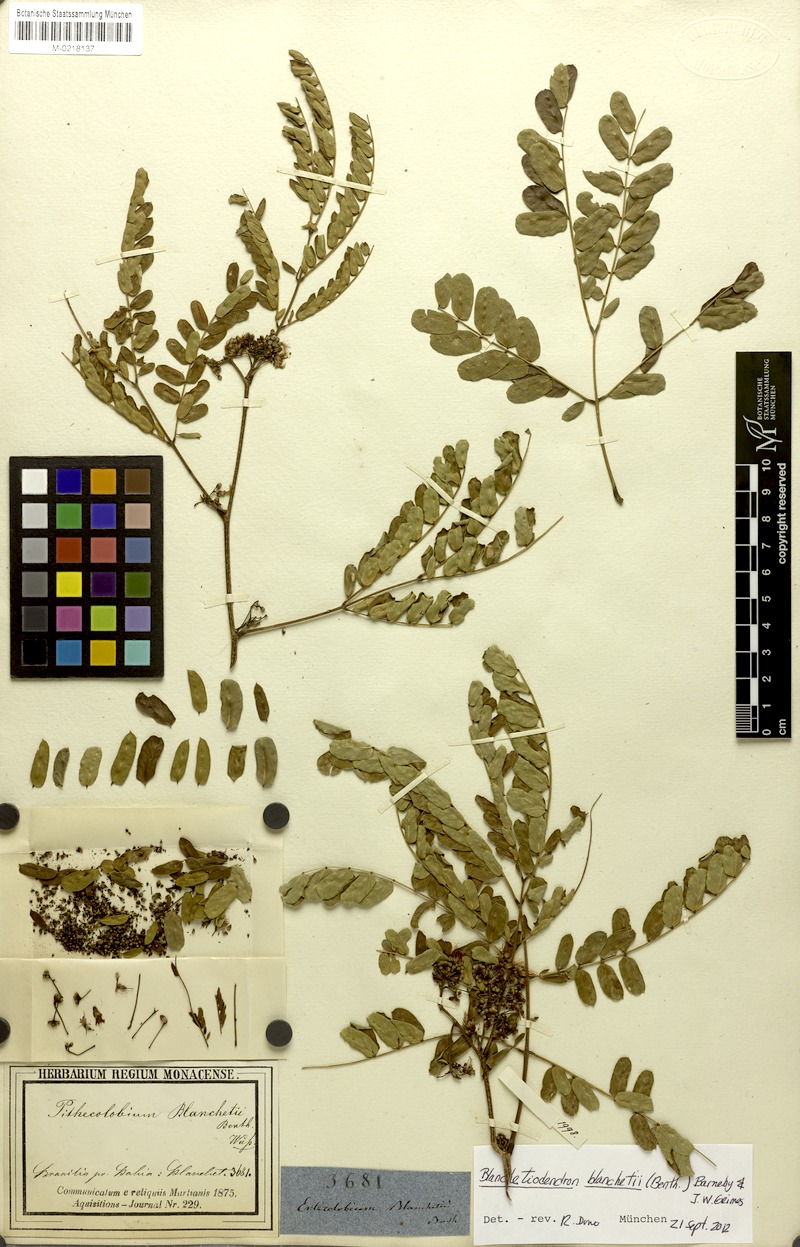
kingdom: Plantae
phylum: Tracheophyta
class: Magnoliopsida
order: Fabales
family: Fabaceae
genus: Blanchetiodendron
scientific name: Blanchetiodendron blanchetii
